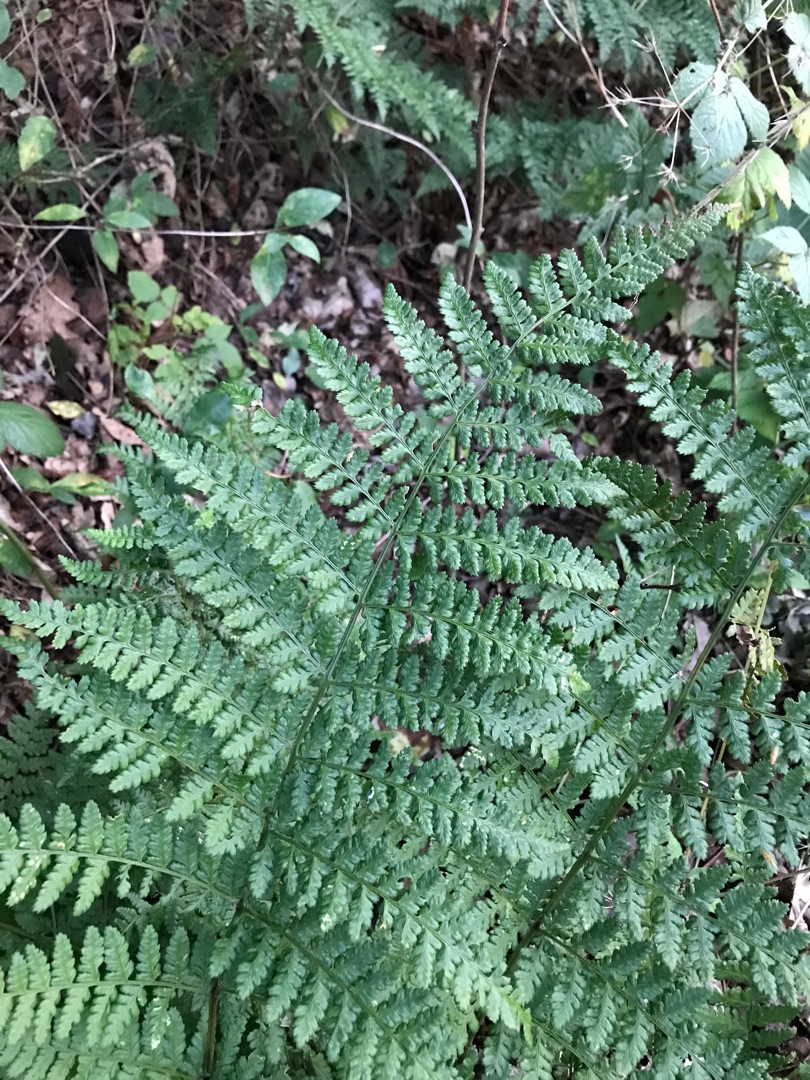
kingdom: Plantae
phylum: Tracheophyta
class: Polypodiopsida
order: Polypodiales
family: Dryopteridaceae
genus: Dryopteris
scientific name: Dryopteris dilatata
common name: Bredbladet mangeløv
